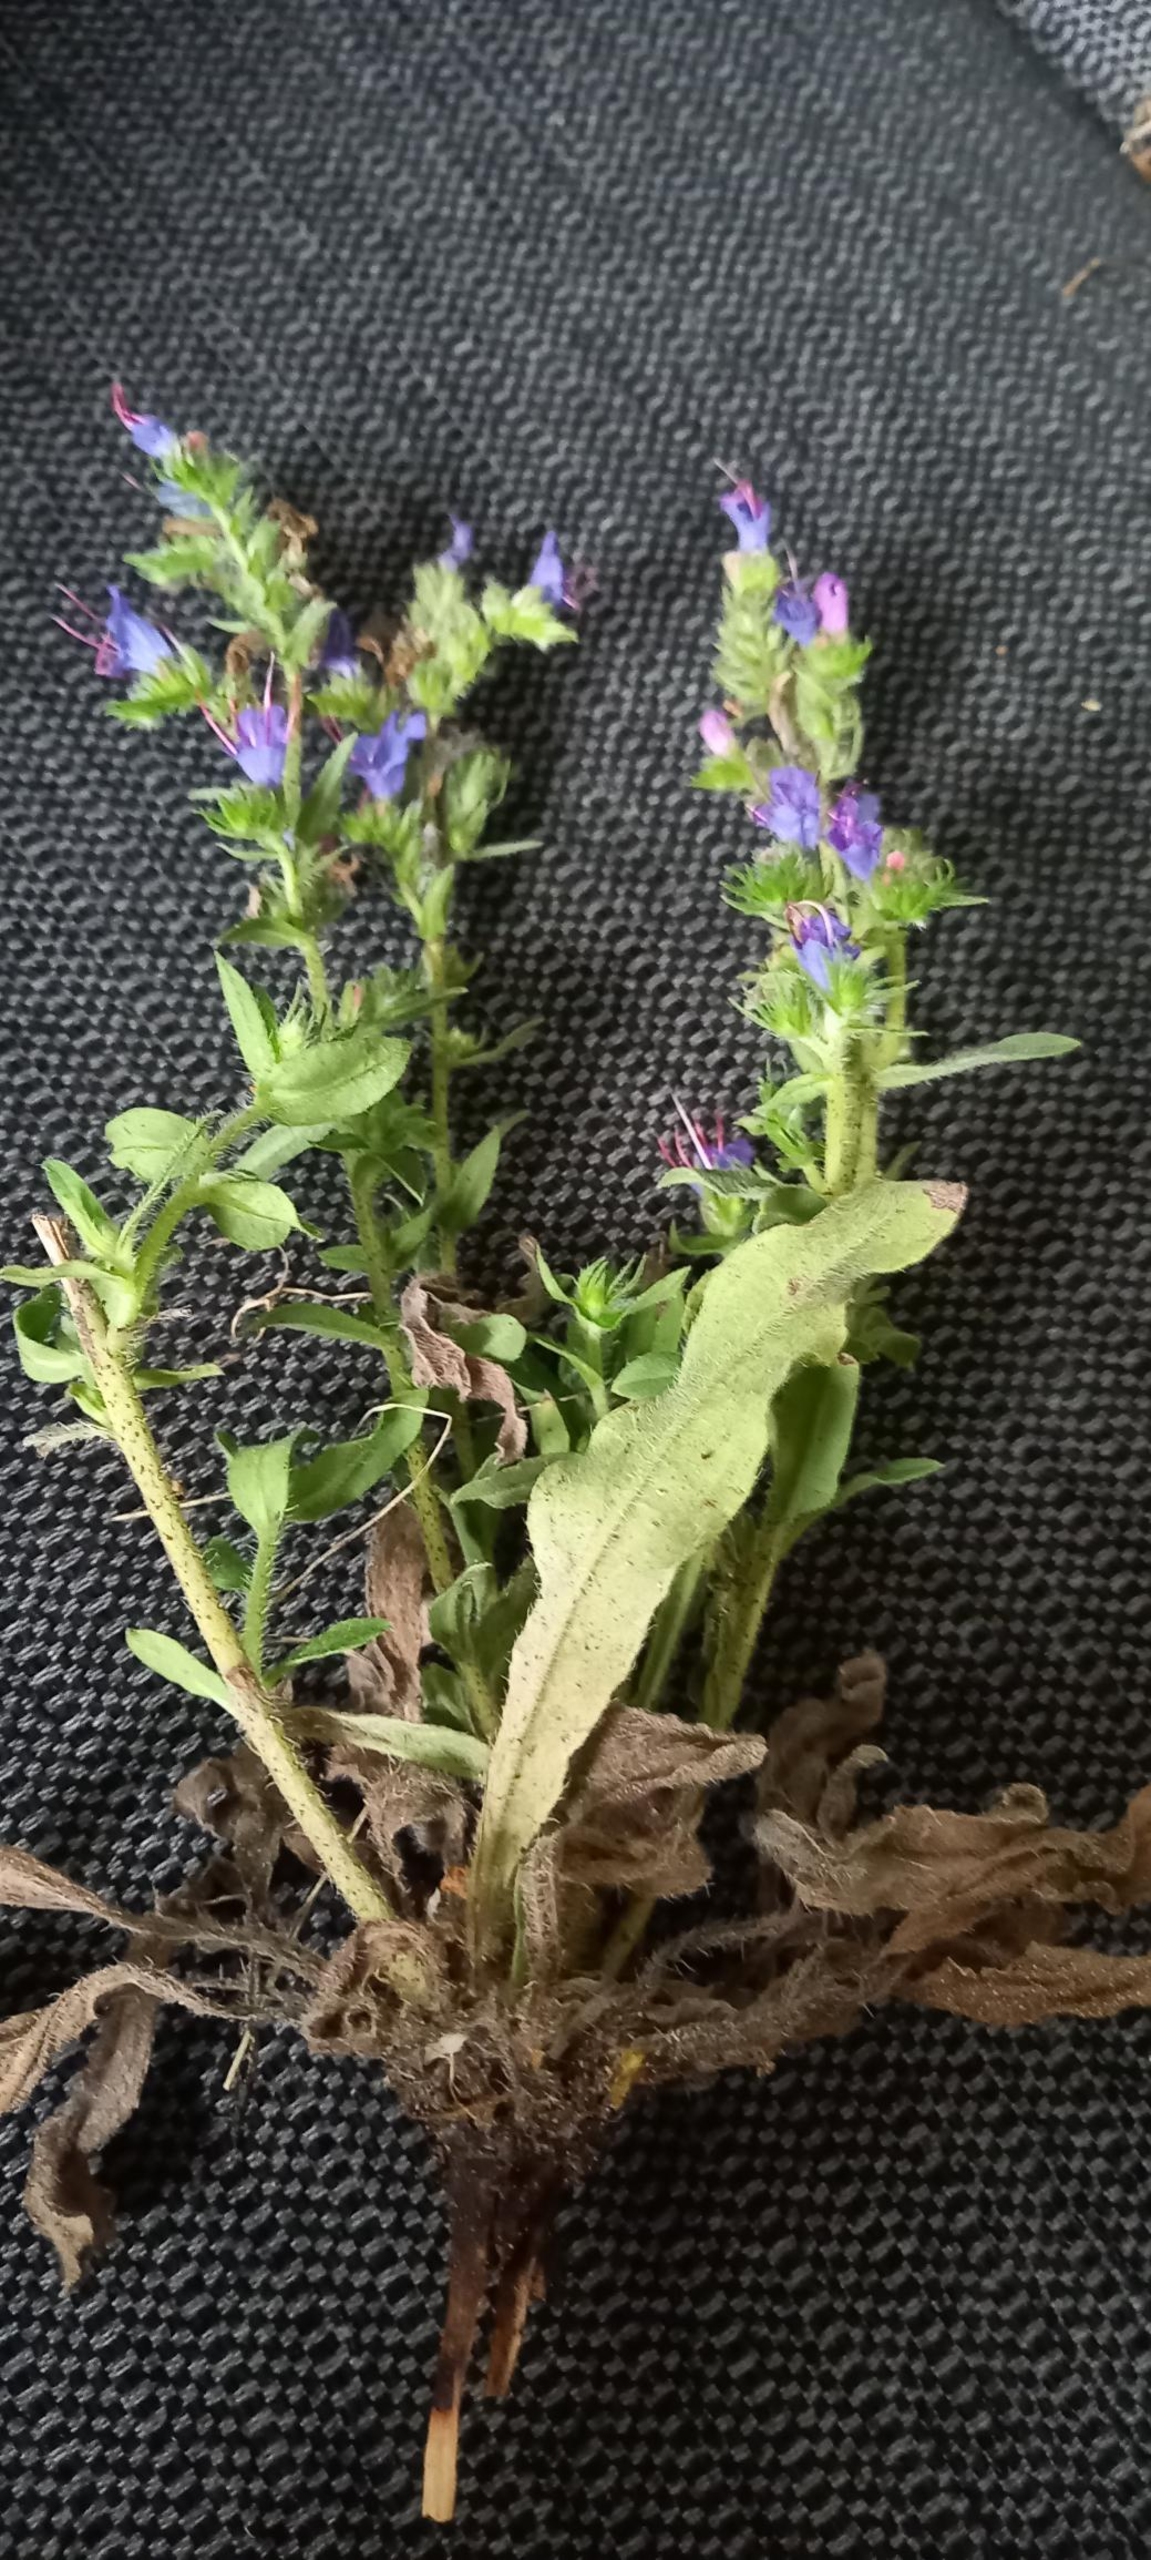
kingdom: Plantae
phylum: Tracheophyta
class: Magnoliopsida
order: Boraginales
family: Boraginaceae
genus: Echium
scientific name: Echium vulgare
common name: Slangehoved
